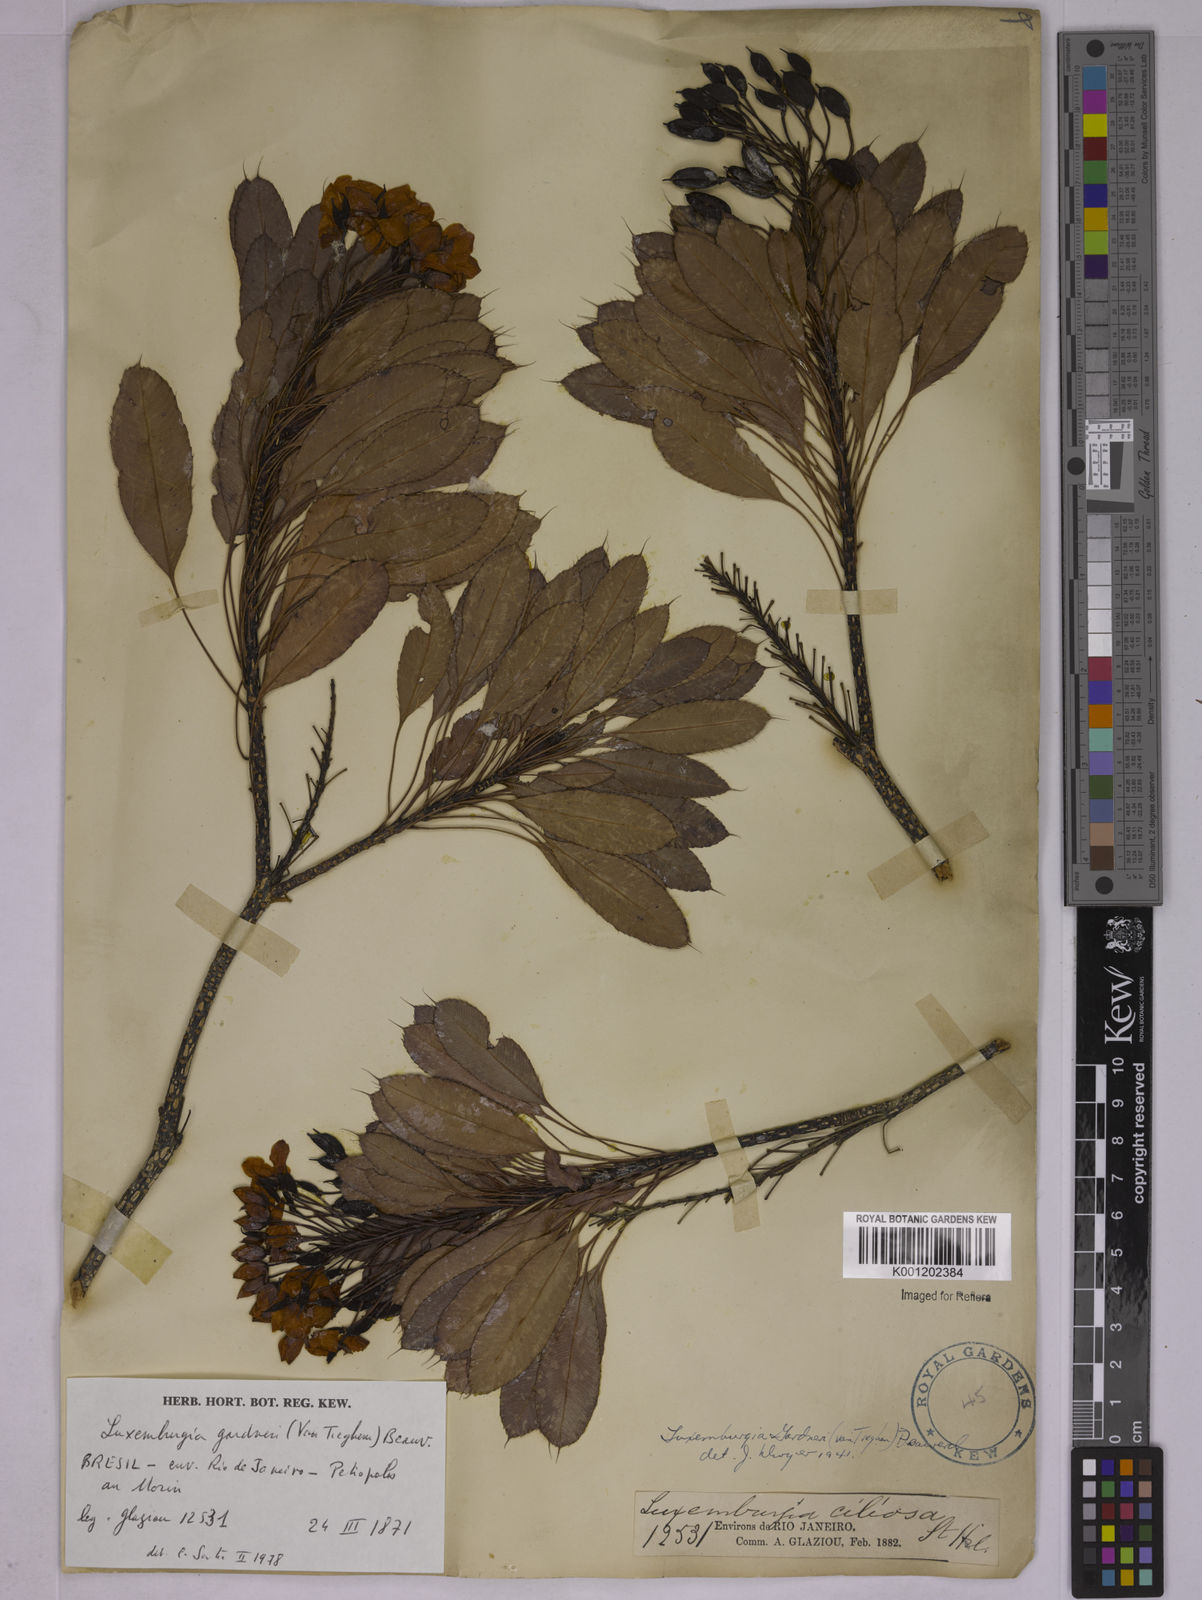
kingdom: Plantae
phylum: Tracheophyta
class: Magnoliopsida
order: Malpighiales
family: Ochnaceae
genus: Luxemburgia
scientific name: Luxemburgia ciliosa
